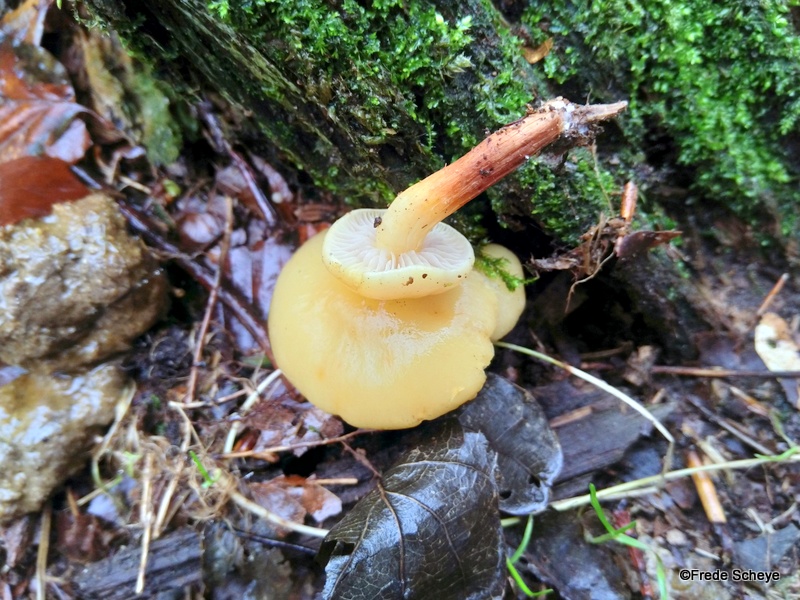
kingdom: Fungi
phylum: Basidiomycota
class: Agaricomycetes
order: Agaricales
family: Physalacriaceae
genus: Flammulina
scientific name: Flammulina velutipes
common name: gul fløjlsfod
